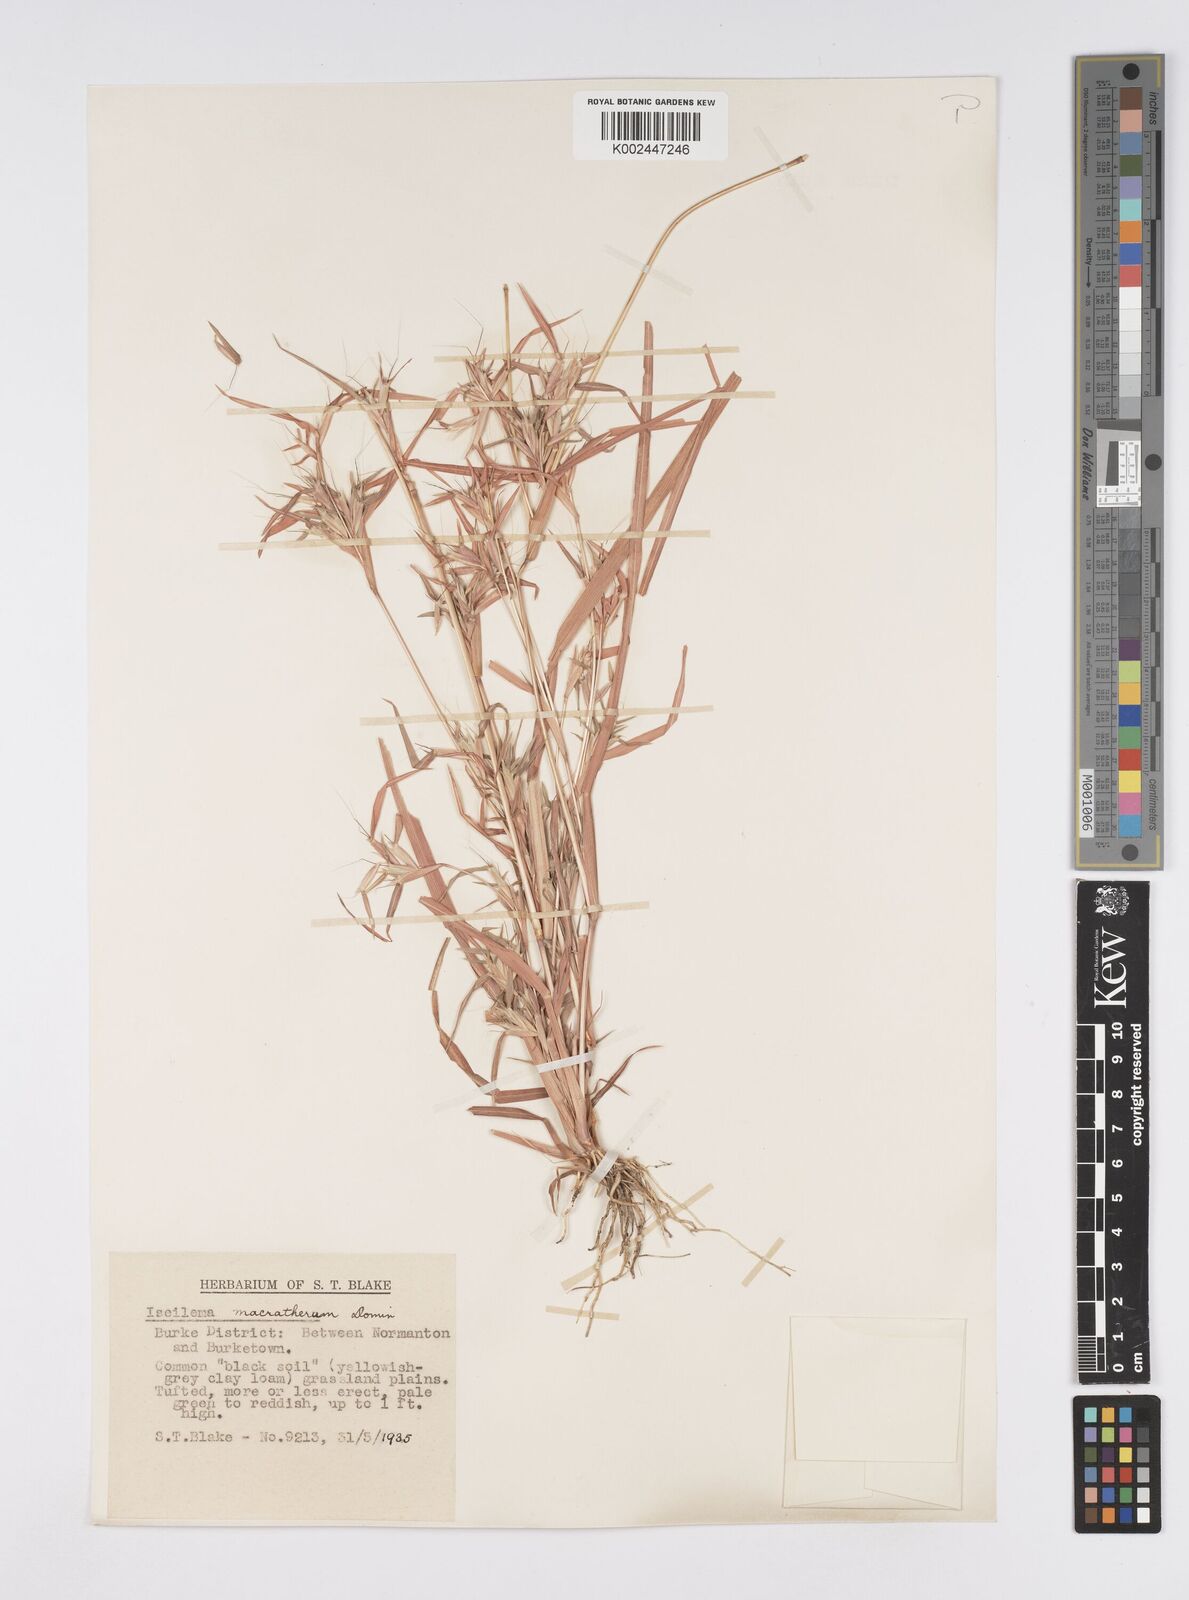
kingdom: Plantae
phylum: Tracheophyta
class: Liliopsida
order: Poales
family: Poaceae
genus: Iseilema
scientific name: Iseilema macratherum
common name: Bull flinders grass
